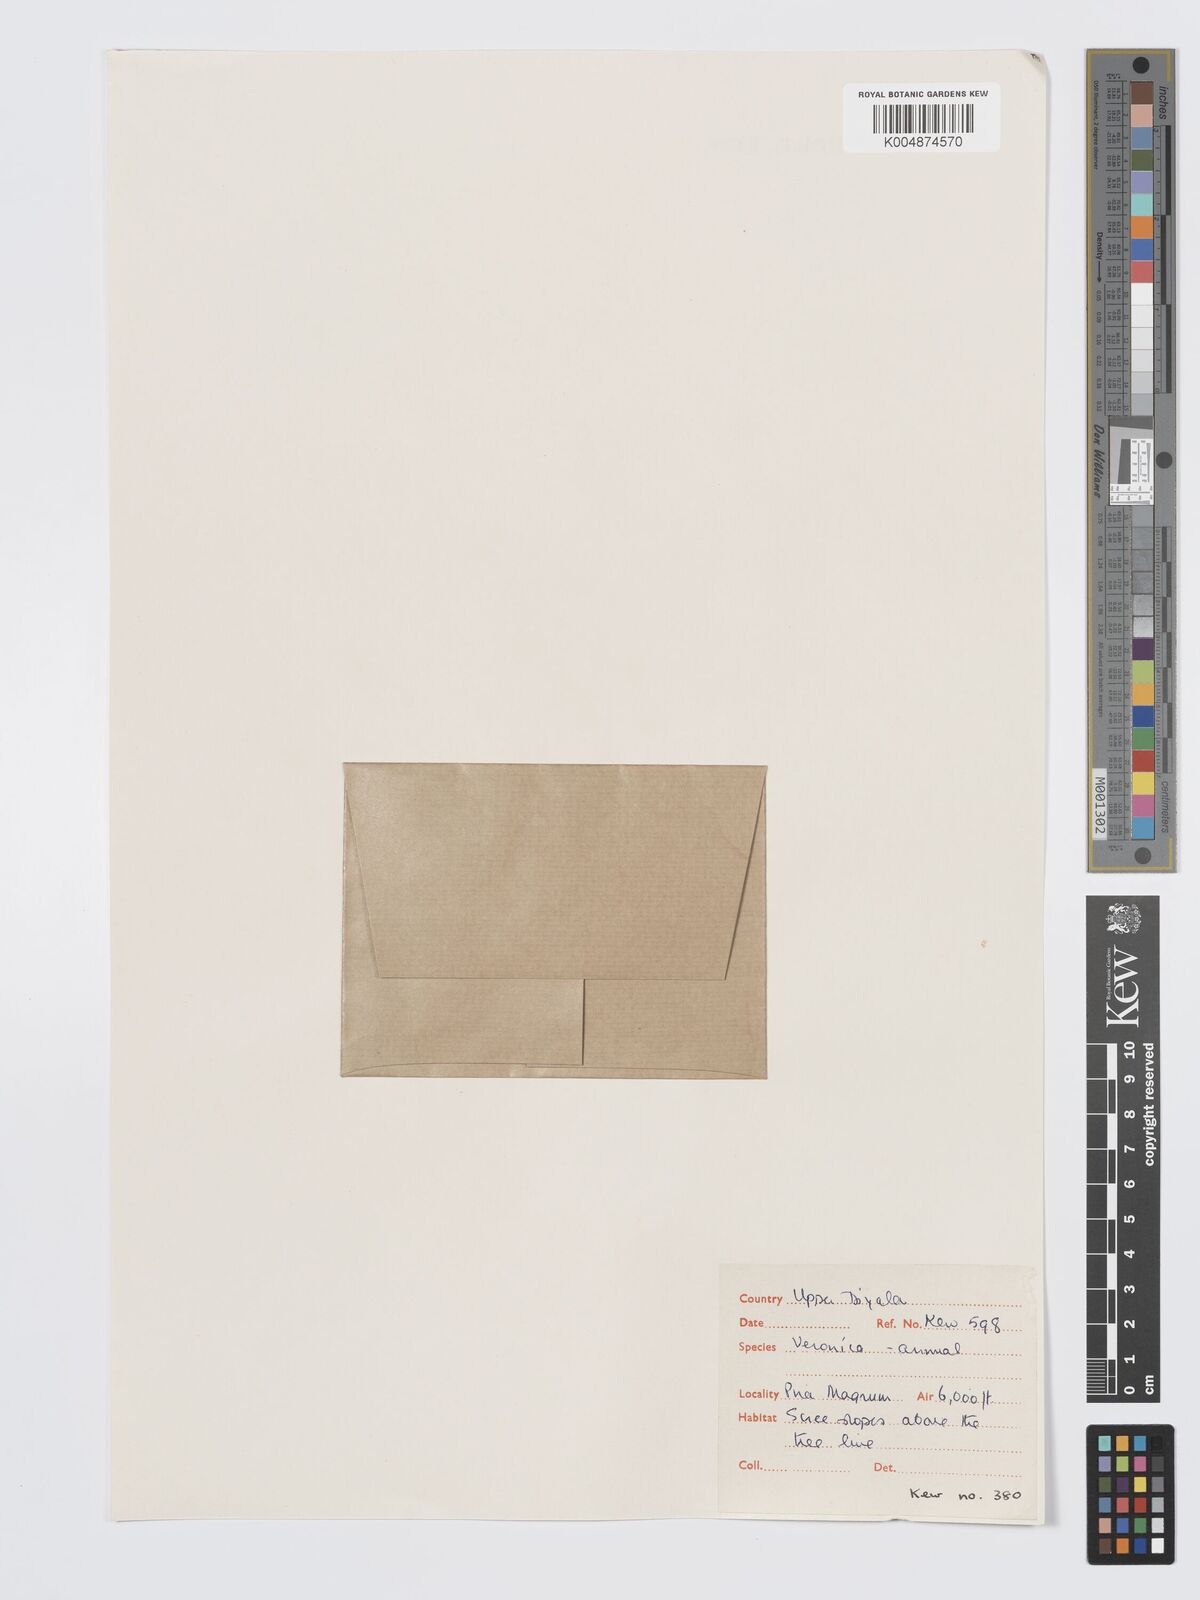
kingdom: Plantae
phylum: Tracheophyta
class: Magnoliopsida
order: Lamiales
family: Plantaginaceae
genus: Veronica
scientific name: Veronica
